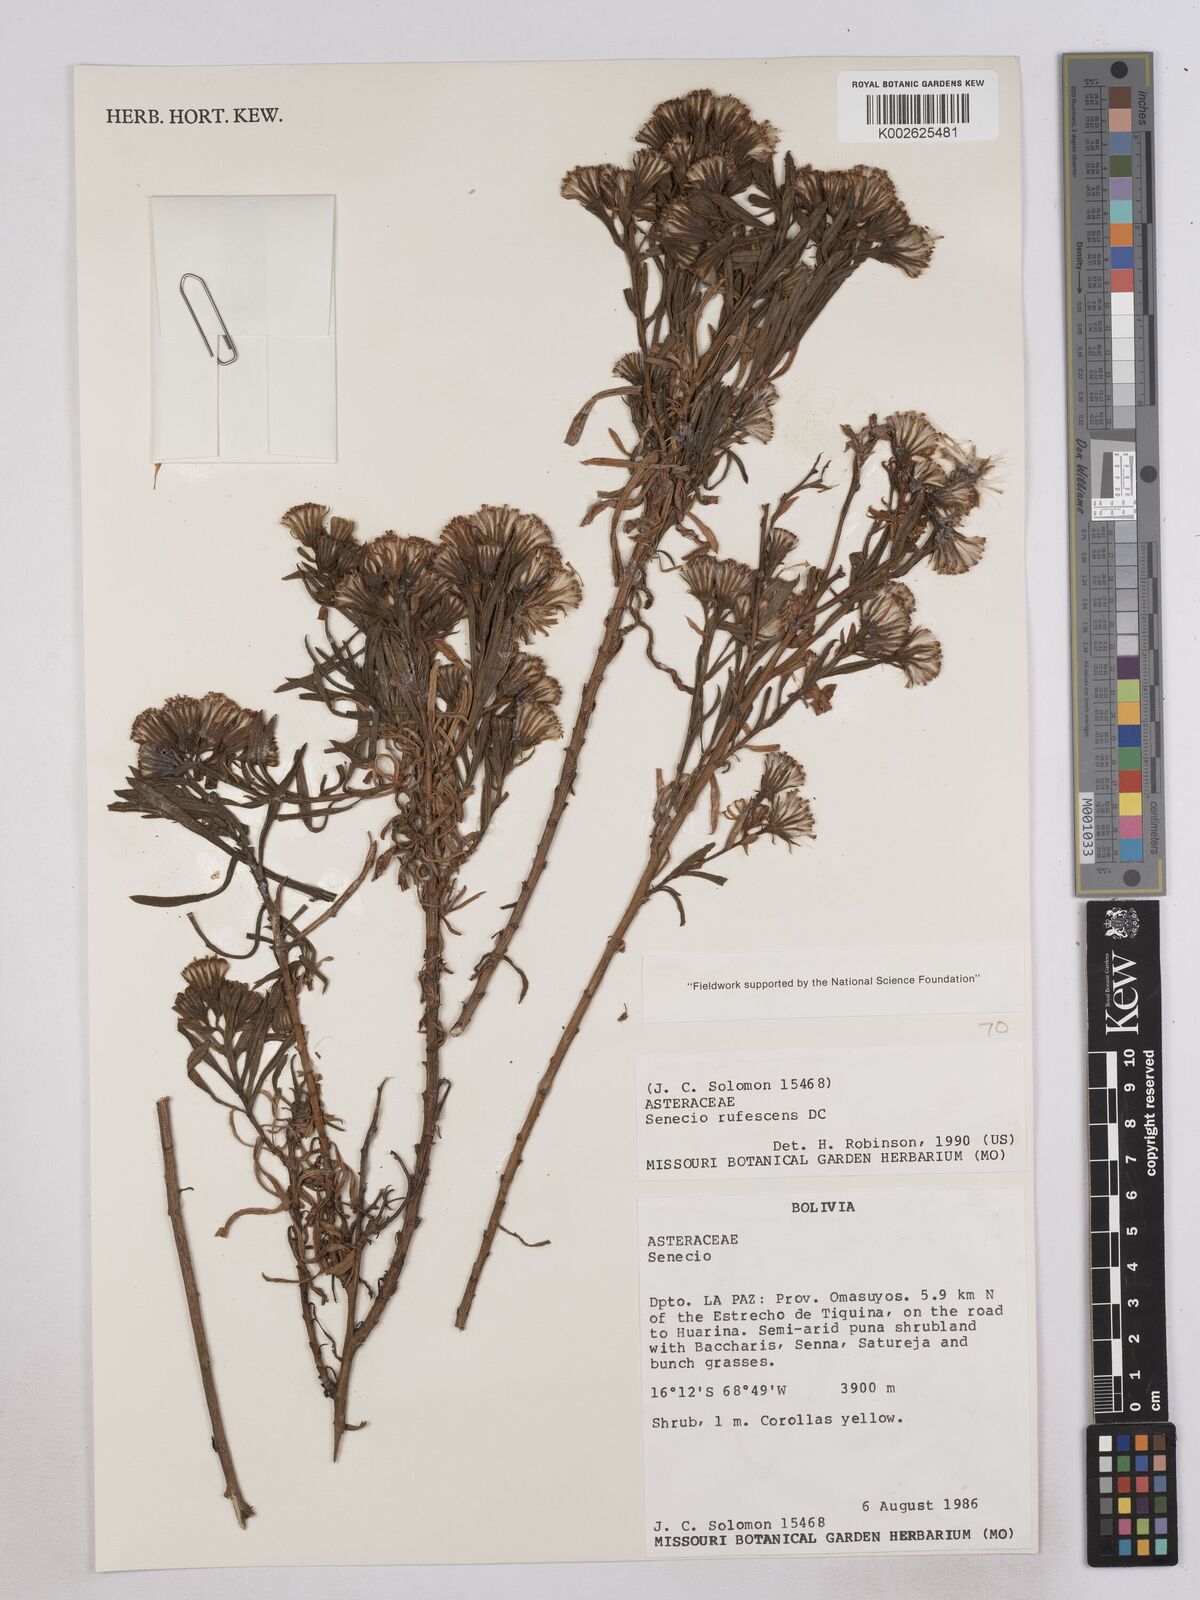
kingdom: Plantae
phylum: Tracheophyta
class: Magnoliopsida
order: Asterales
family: Asteraceae
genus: Senecio
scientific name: Senecio rufescens
